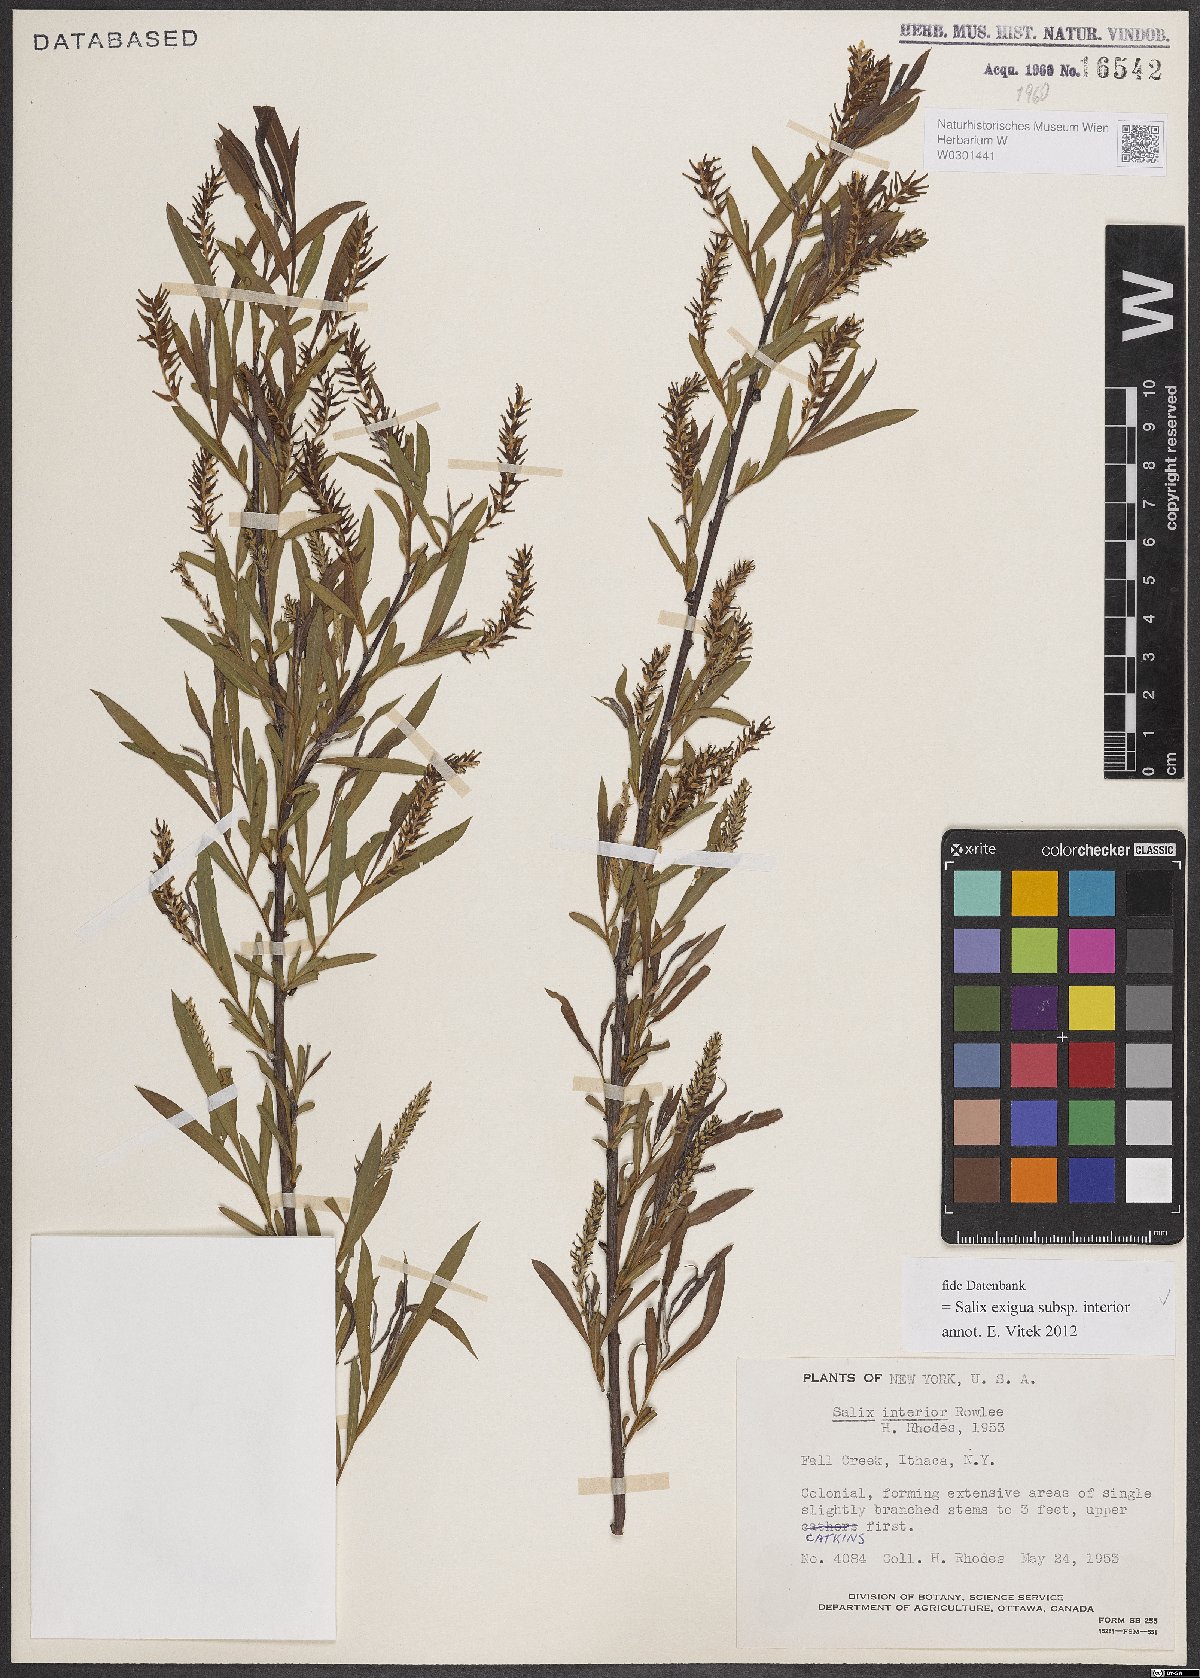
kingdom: Plantae
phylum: Tracheophyta
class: Magnoliopsida
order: Malpighiales
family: Salicaceae
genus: Salix
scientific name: Salix interior
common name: Sandbar willow
